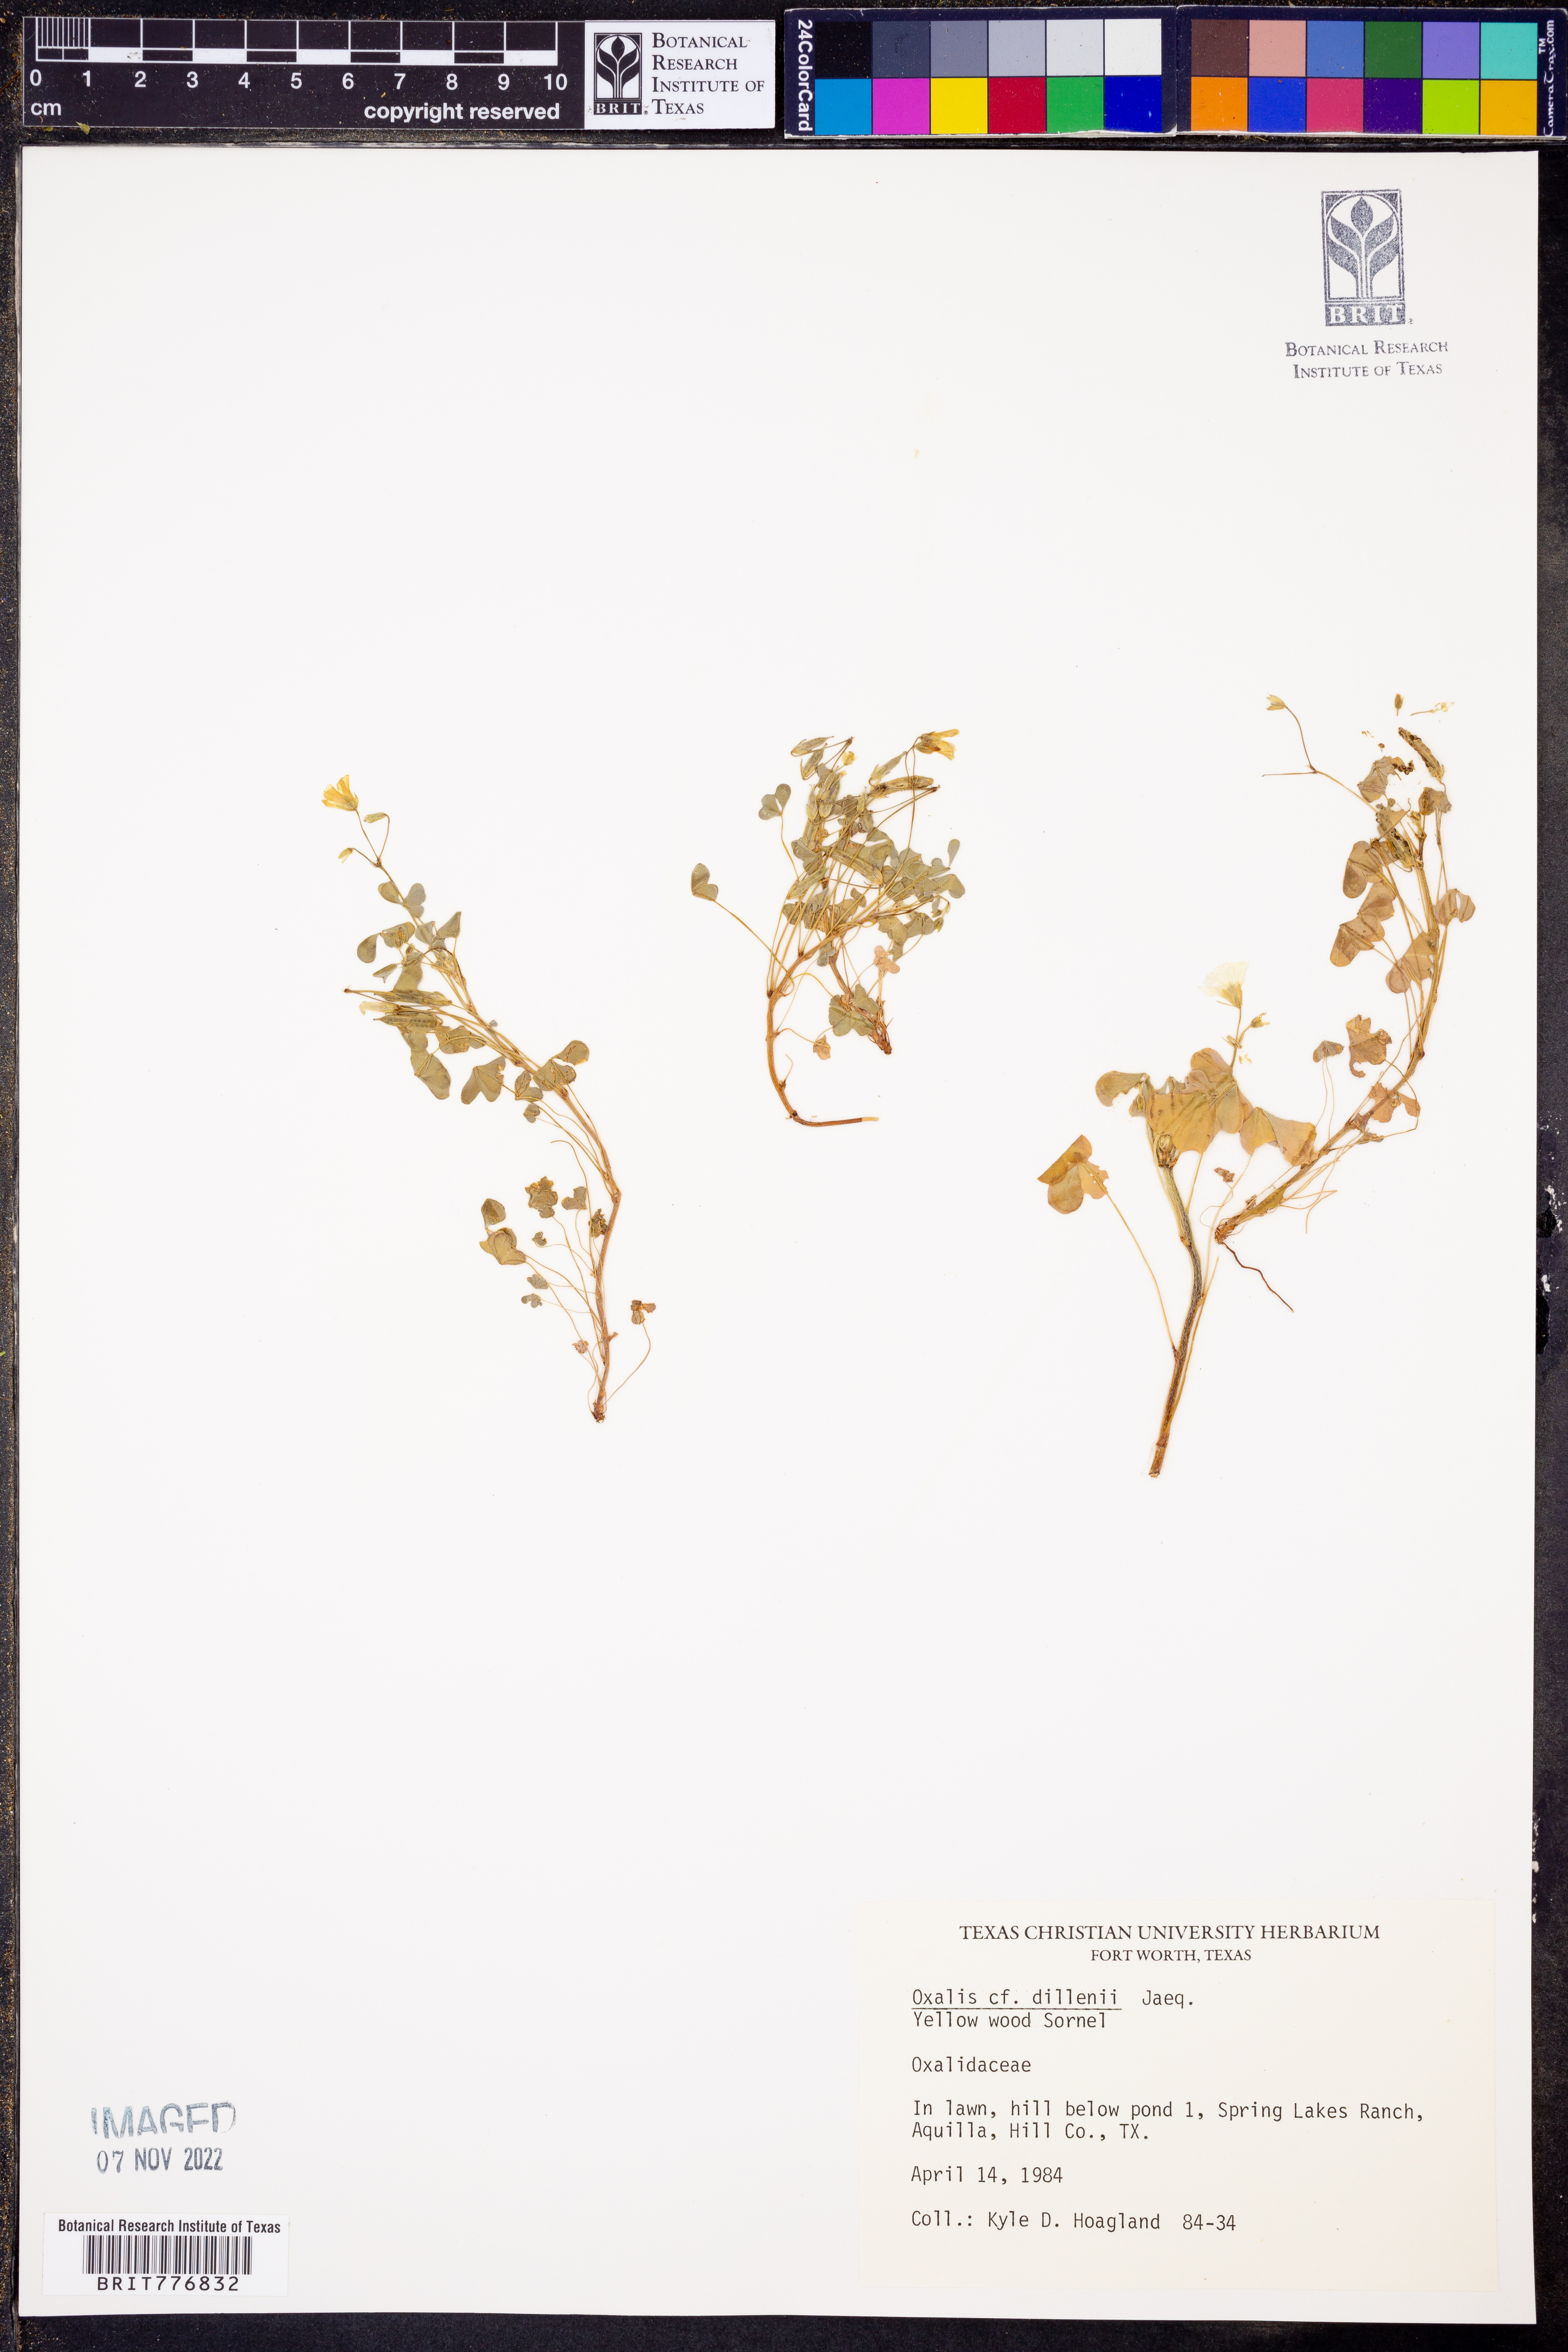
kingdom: Plantae
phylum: Tracheophyta
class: Magnoliopsida
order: Oxalidales
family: Oxalidaceae
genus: Oxalis
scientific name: Oxalis dillenii
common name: Sussex yellow-sorrel
